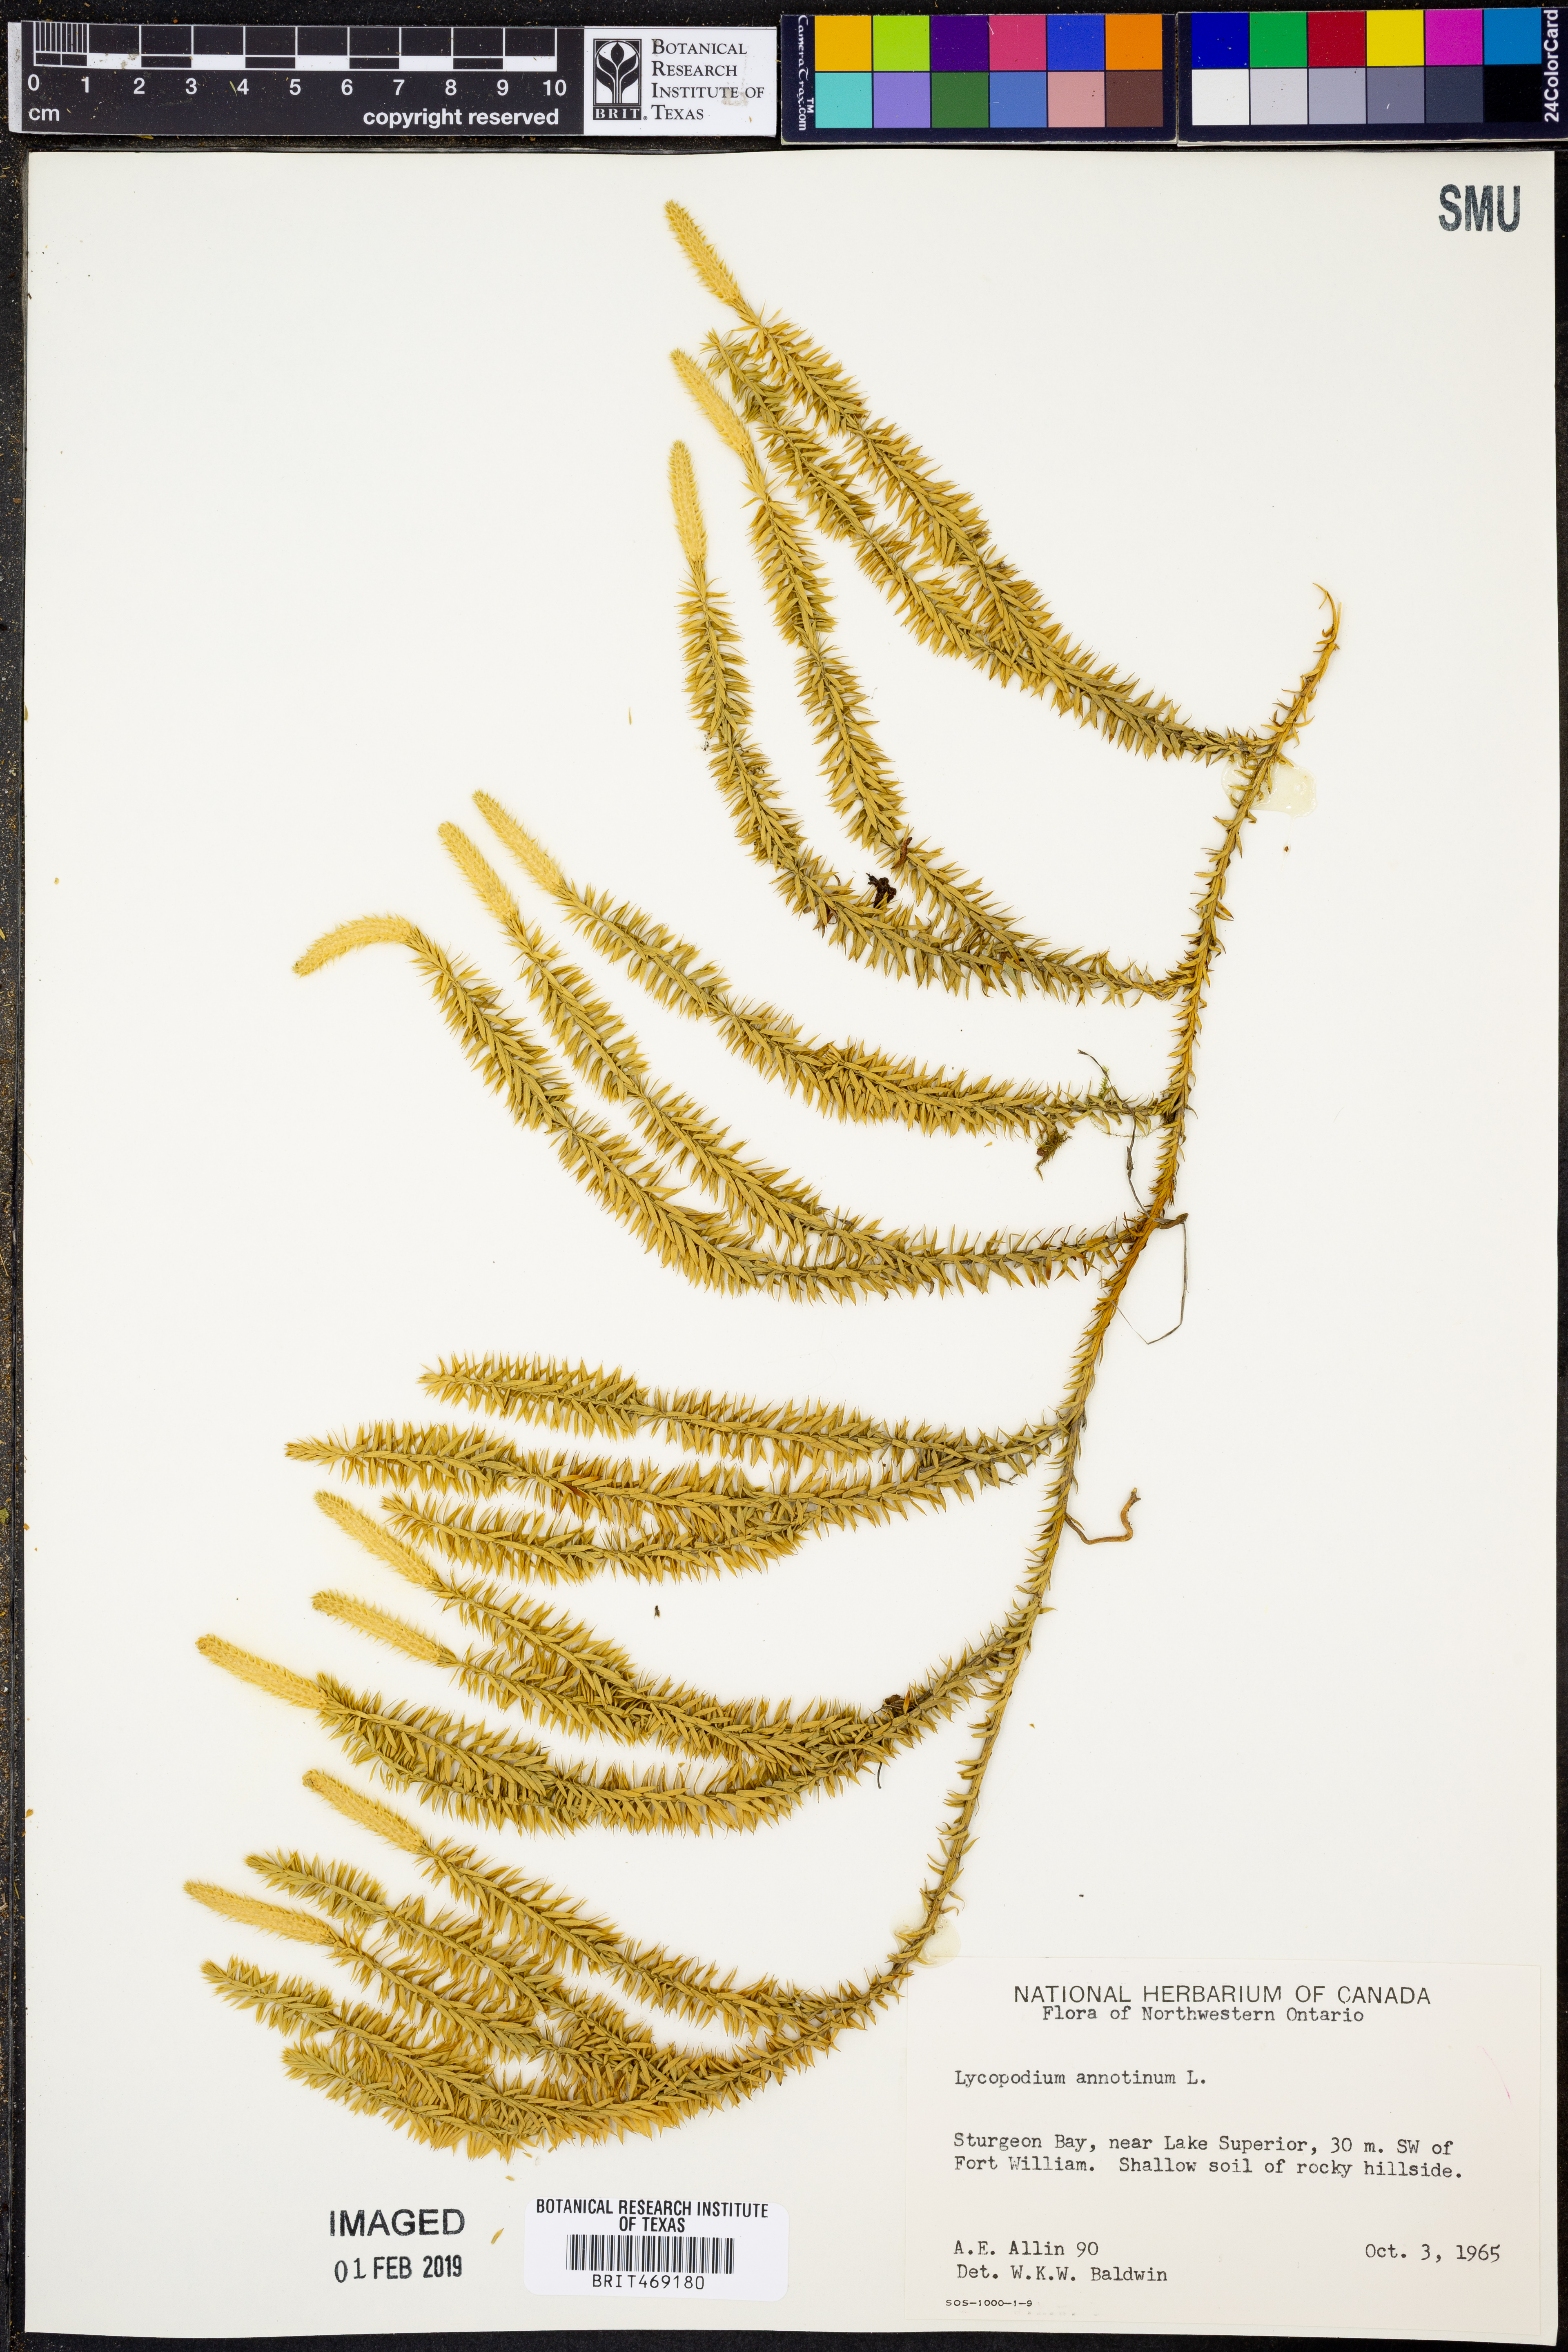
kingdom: Plantae
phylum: Tracheophyta
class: Lycopodiopsida
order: Lycopodiales
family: Lycopodiaceae
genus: Spinulum
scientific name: Spinulum annotinum
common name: Interrupted club-moss
